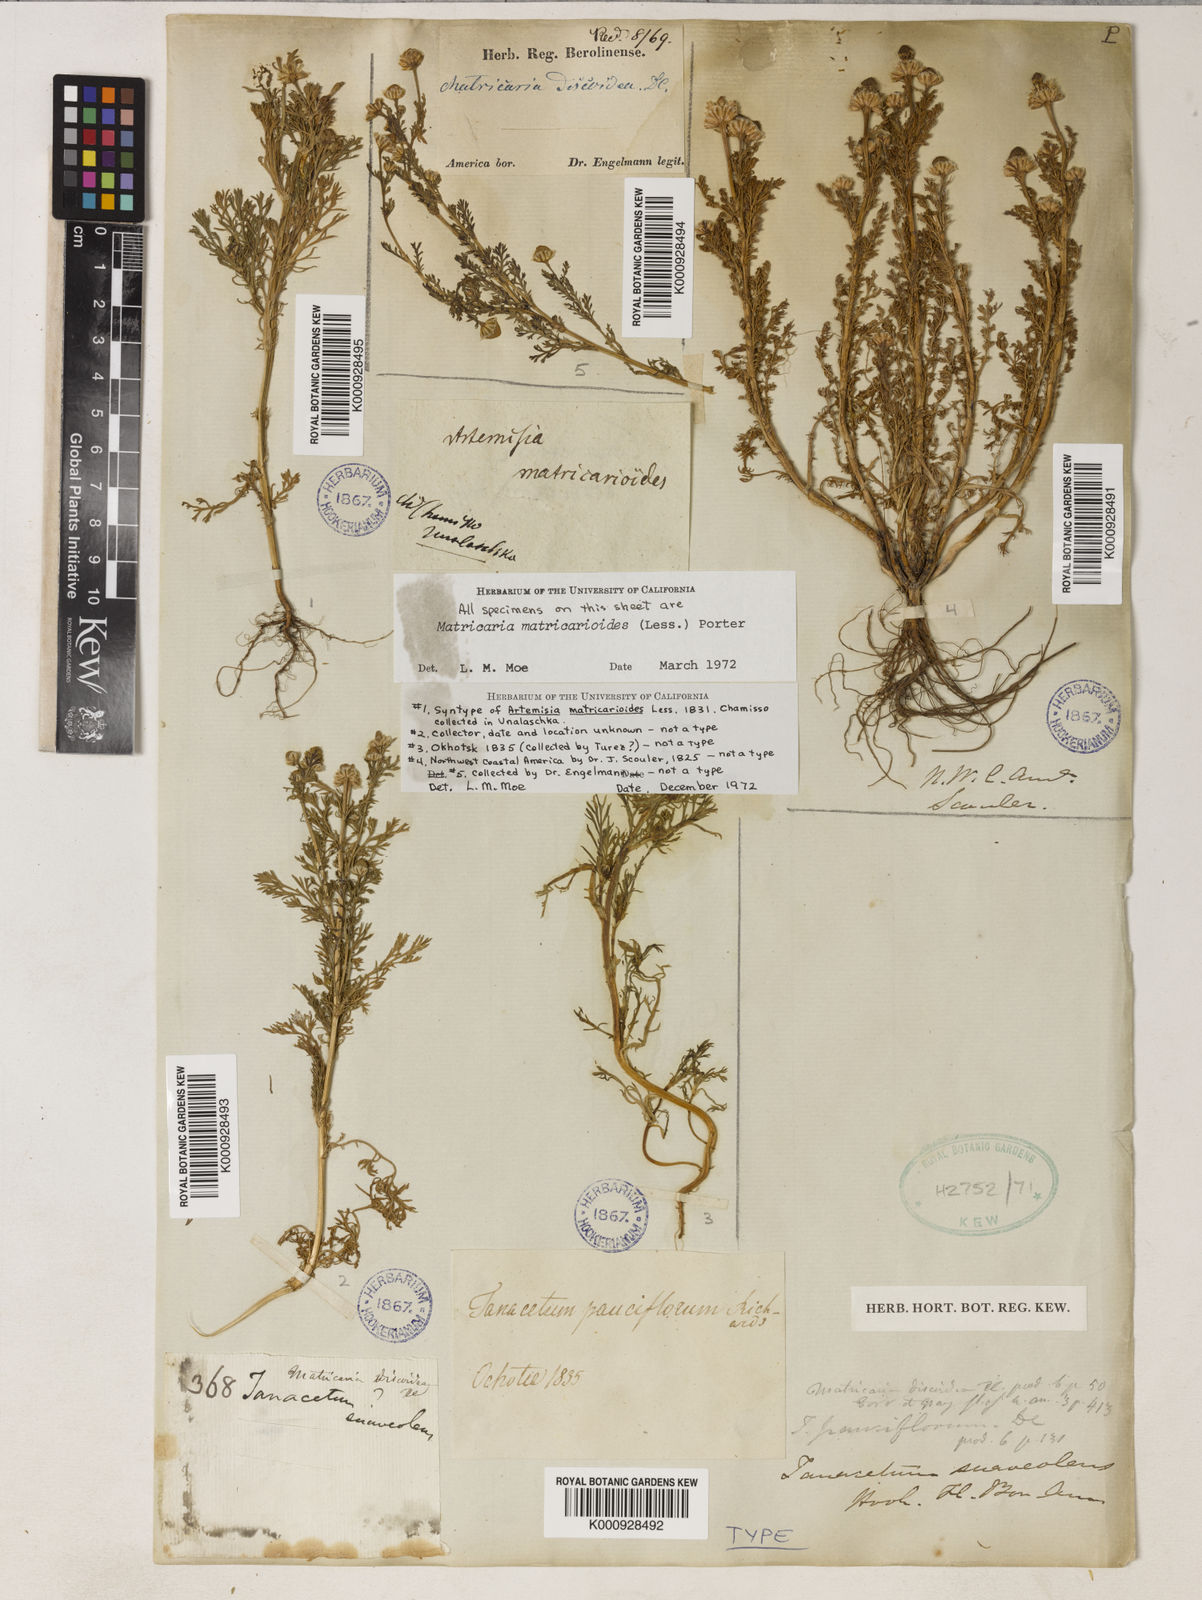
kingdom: Plantae
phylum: Tracheophyta
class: Magnoliopsida
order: Asterales
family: Asteraceae
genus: Matricaria
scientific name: Matricaria
